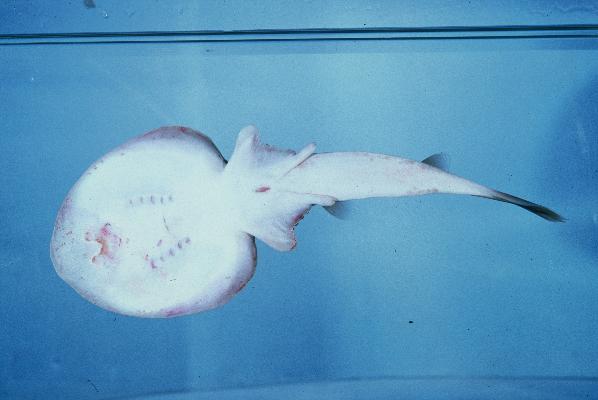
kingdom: Animalia
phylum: Chordata
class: Elasmobranchii
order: Torpediniformes
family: Narcinidae
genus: Narcine
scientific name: Narcine rierai
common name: Slender electric ray
